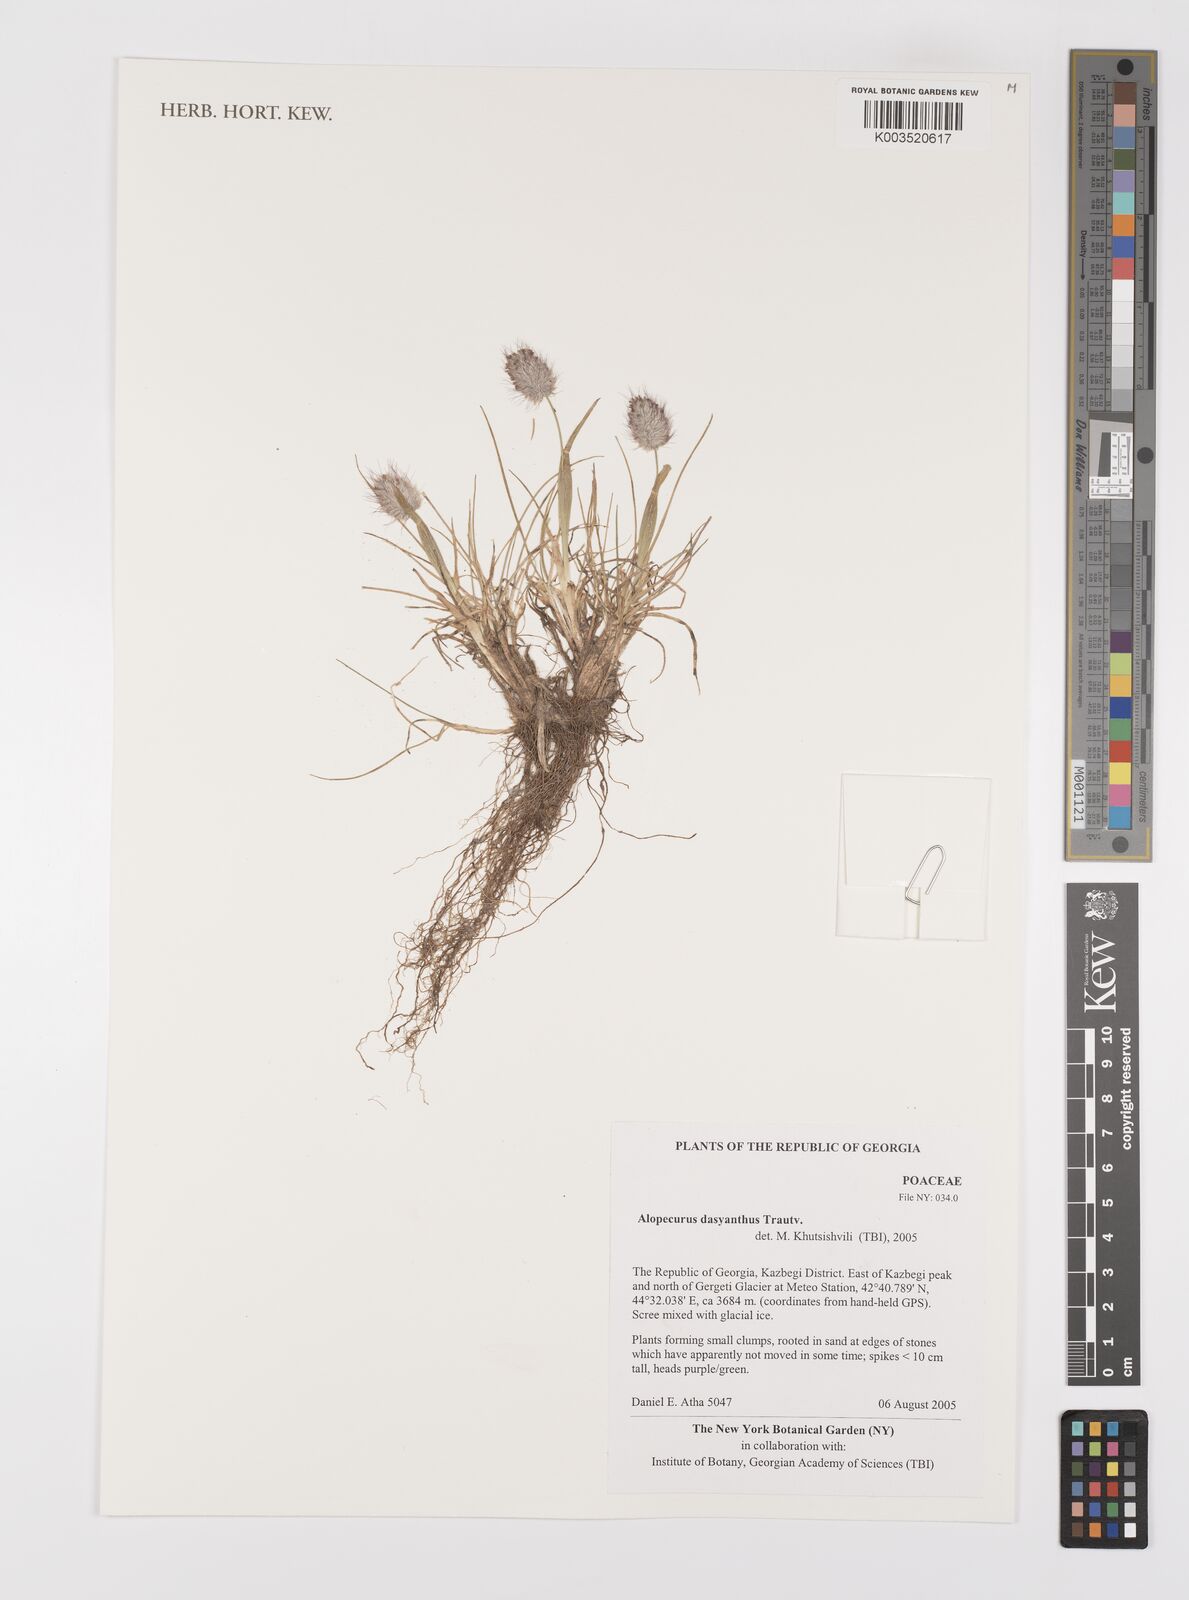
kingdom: Plantae
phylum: Tracheophyta
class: Liliopsida
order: Poales
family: Poaceae
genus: Alopecurus
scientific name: Alopecurus dasyanthus
